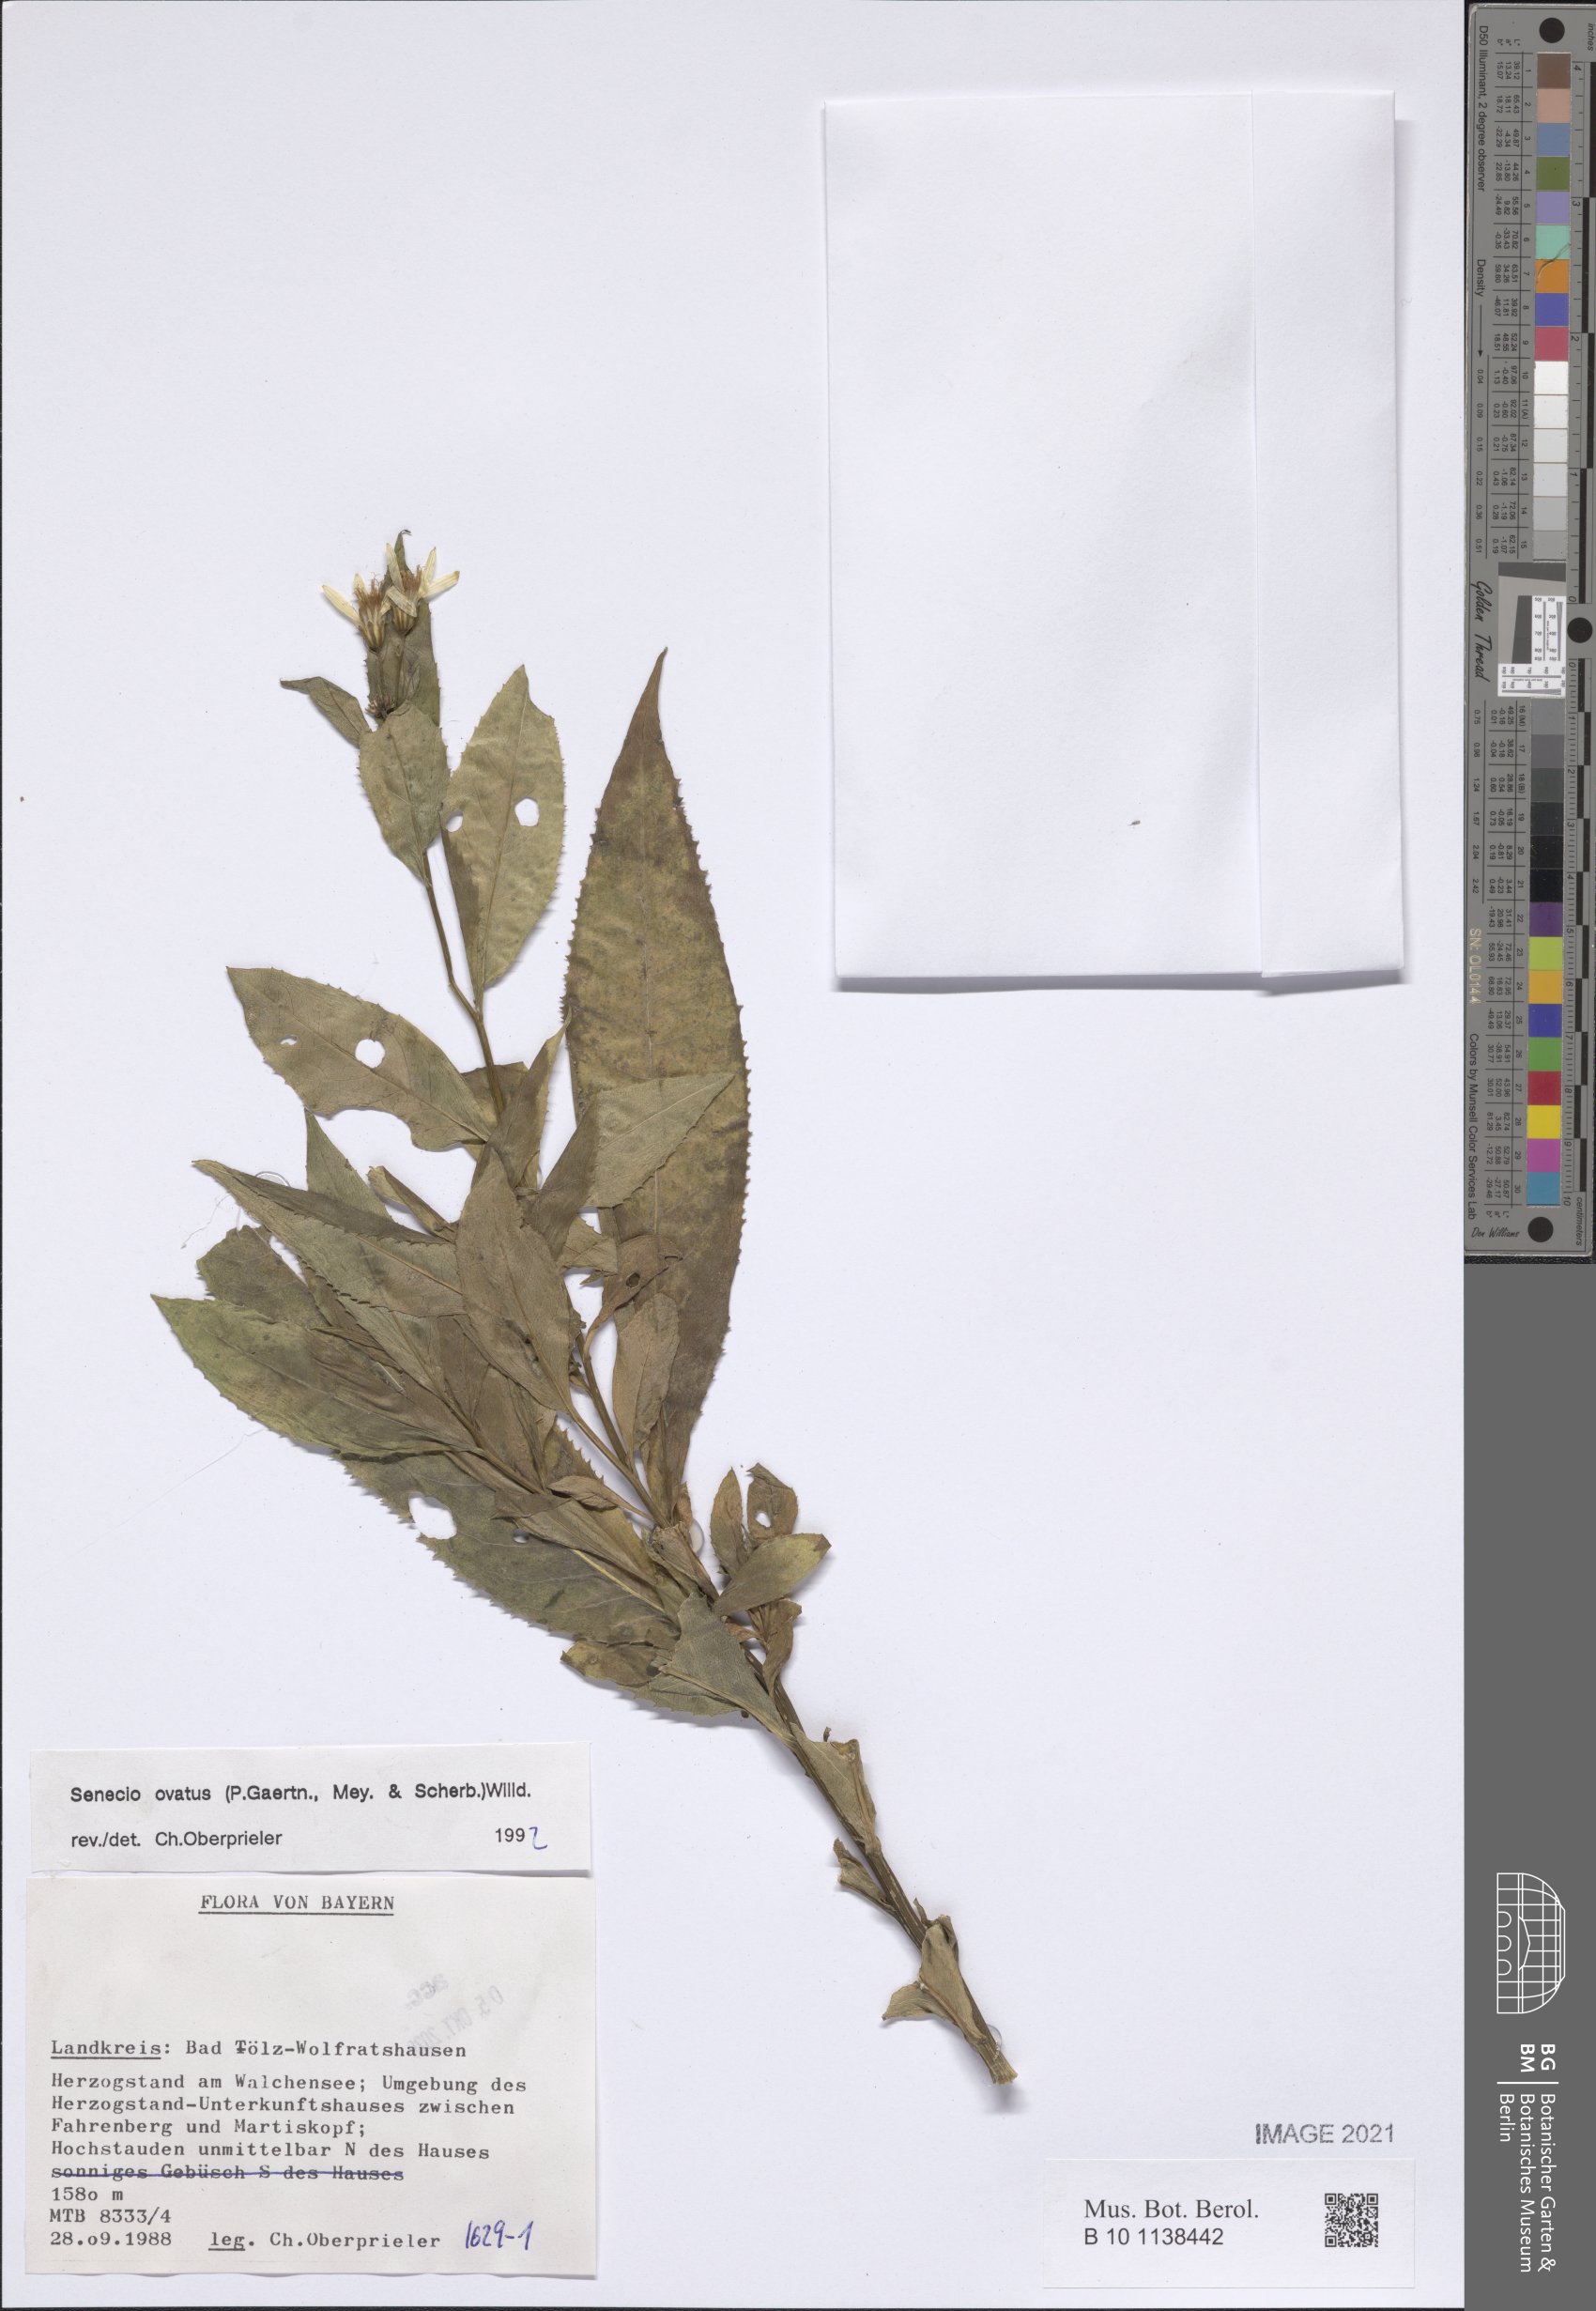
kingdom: Plantae
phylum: Tracheophyta
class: Magnoliopsida
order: Asterales
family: Asteraceae
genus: Senecio
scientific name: Senecio ovatus
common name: Wood ragwort
